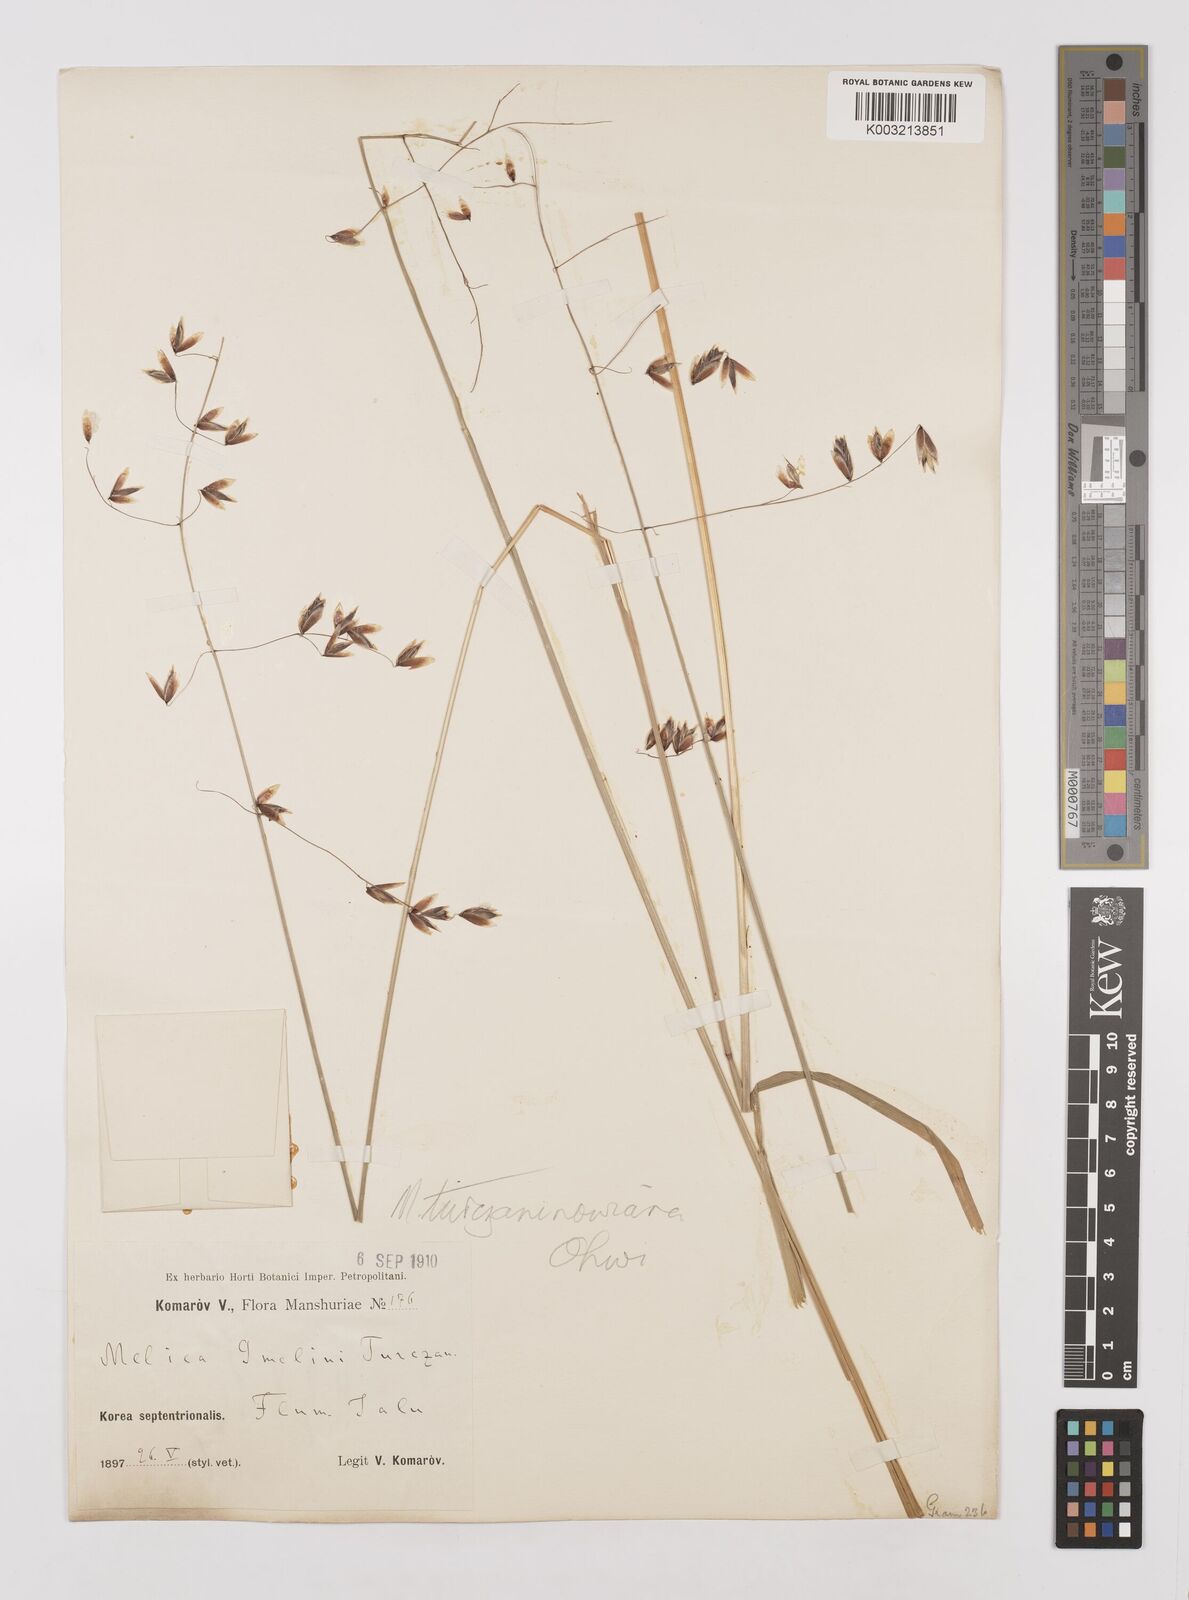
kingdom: Plantae
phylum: Tracheophyta
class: Liliopsida
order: Poales
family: Poaceae
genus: Melica
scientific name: Melica turczaninowiana
